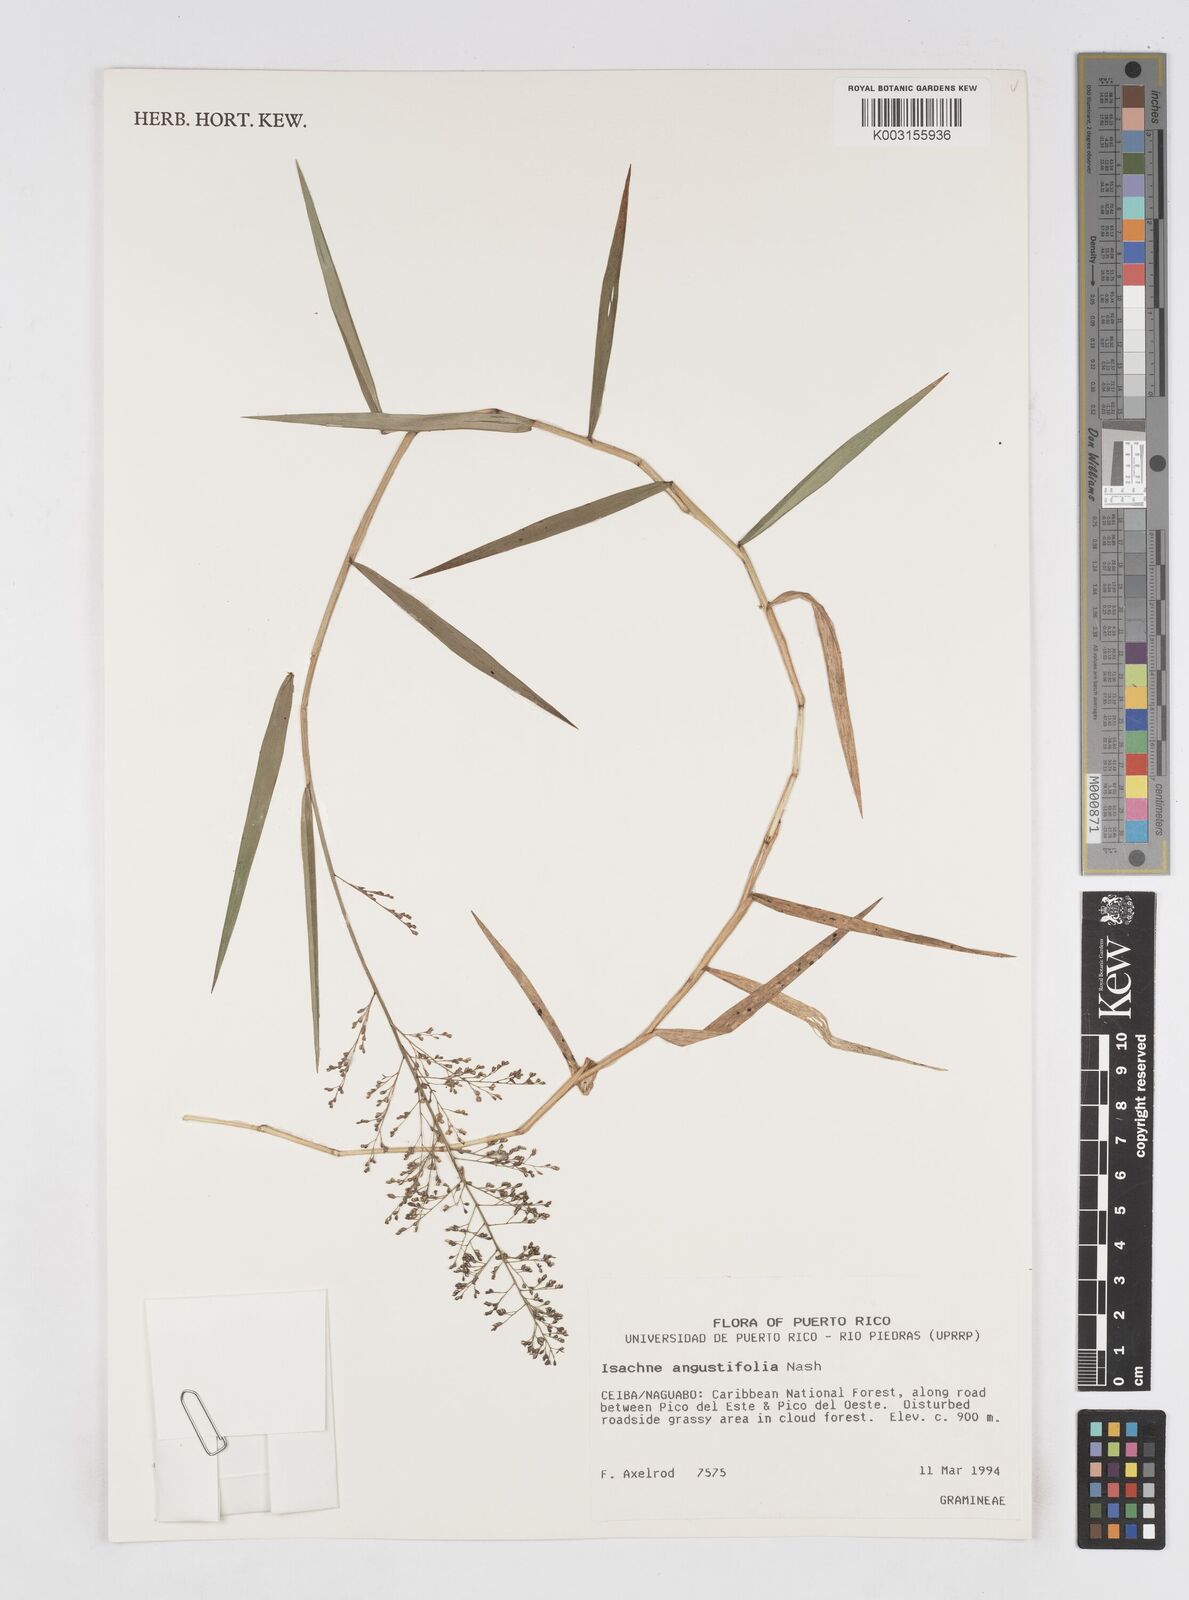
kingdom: Plantae
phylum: Tracheophyta
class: Liliopsida
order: Poales
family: Poaceae
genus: Isachne
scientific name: Isachne
